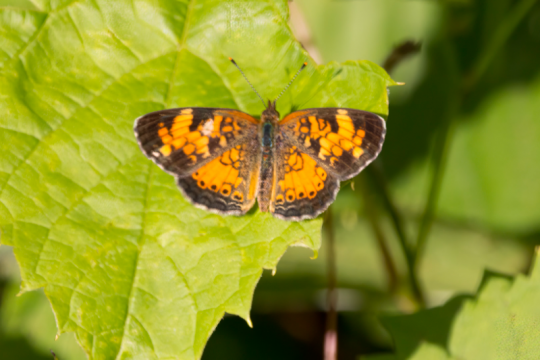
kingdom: Animalia
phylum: Arthropoda
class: Insecta
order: Lepidoptera
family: Nymphalidae
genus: Phyciodes
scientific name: Phyciodes tharos
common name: Northern Crescent
